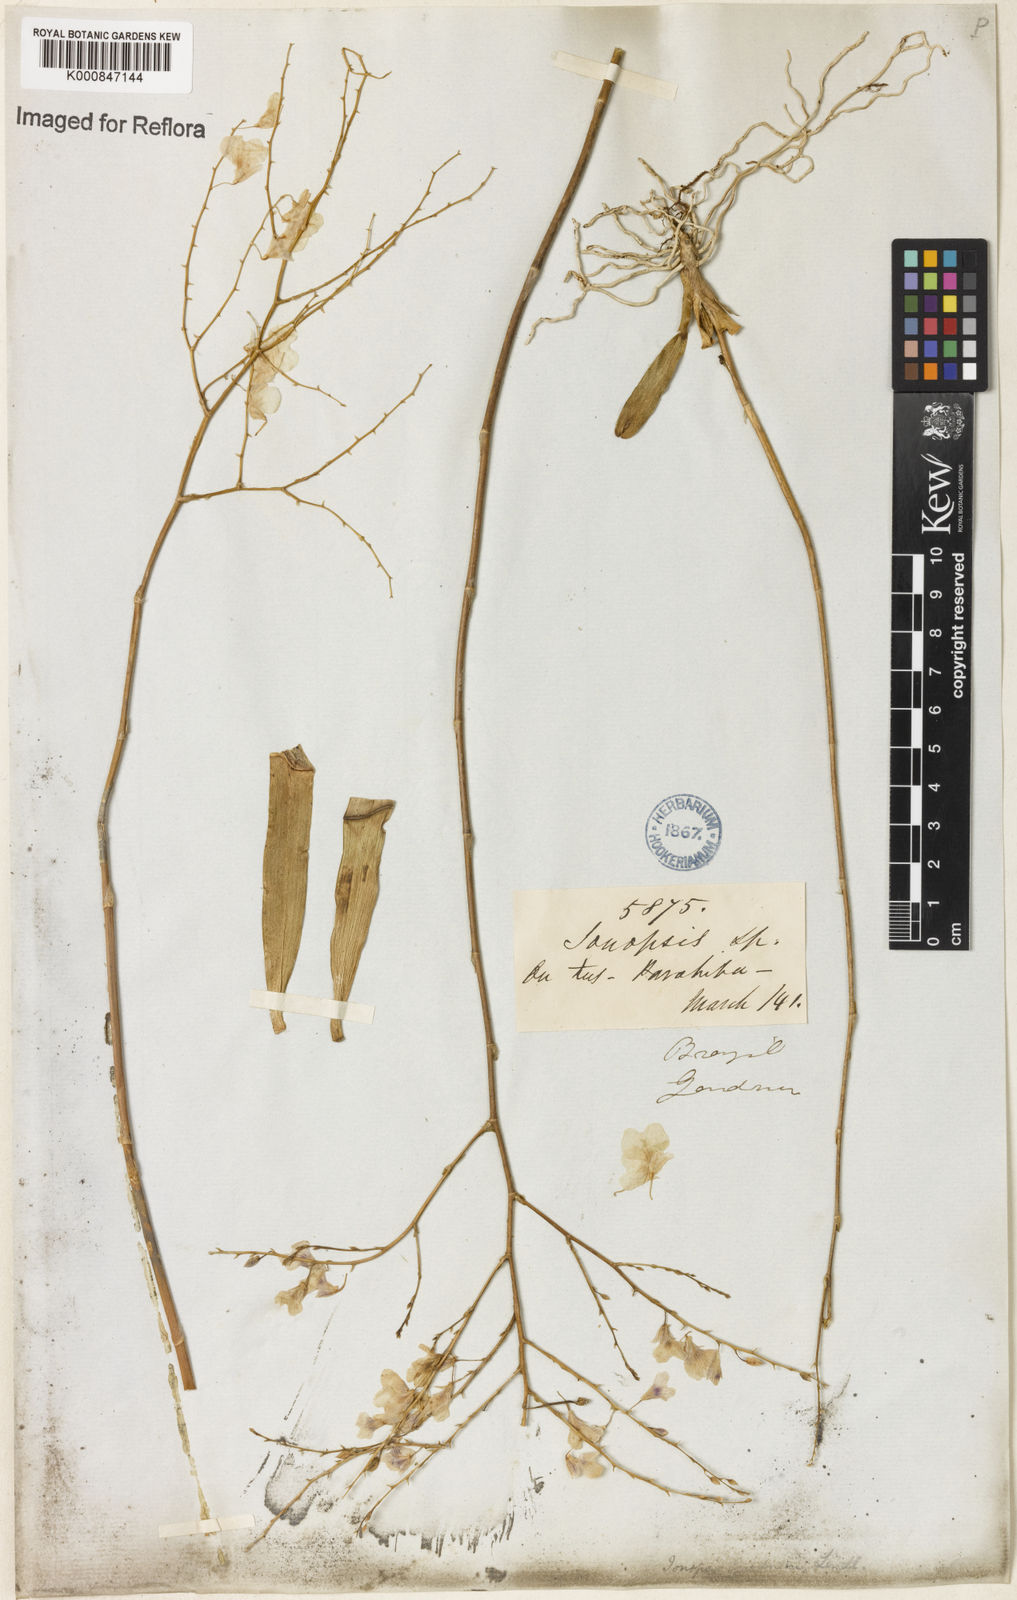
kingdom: Plantae
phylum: Tracheophyta
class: Liliopsida
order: Asparagales
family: Orchidaceae
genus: Ionopsis
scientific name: Ionopsis utricularioides
